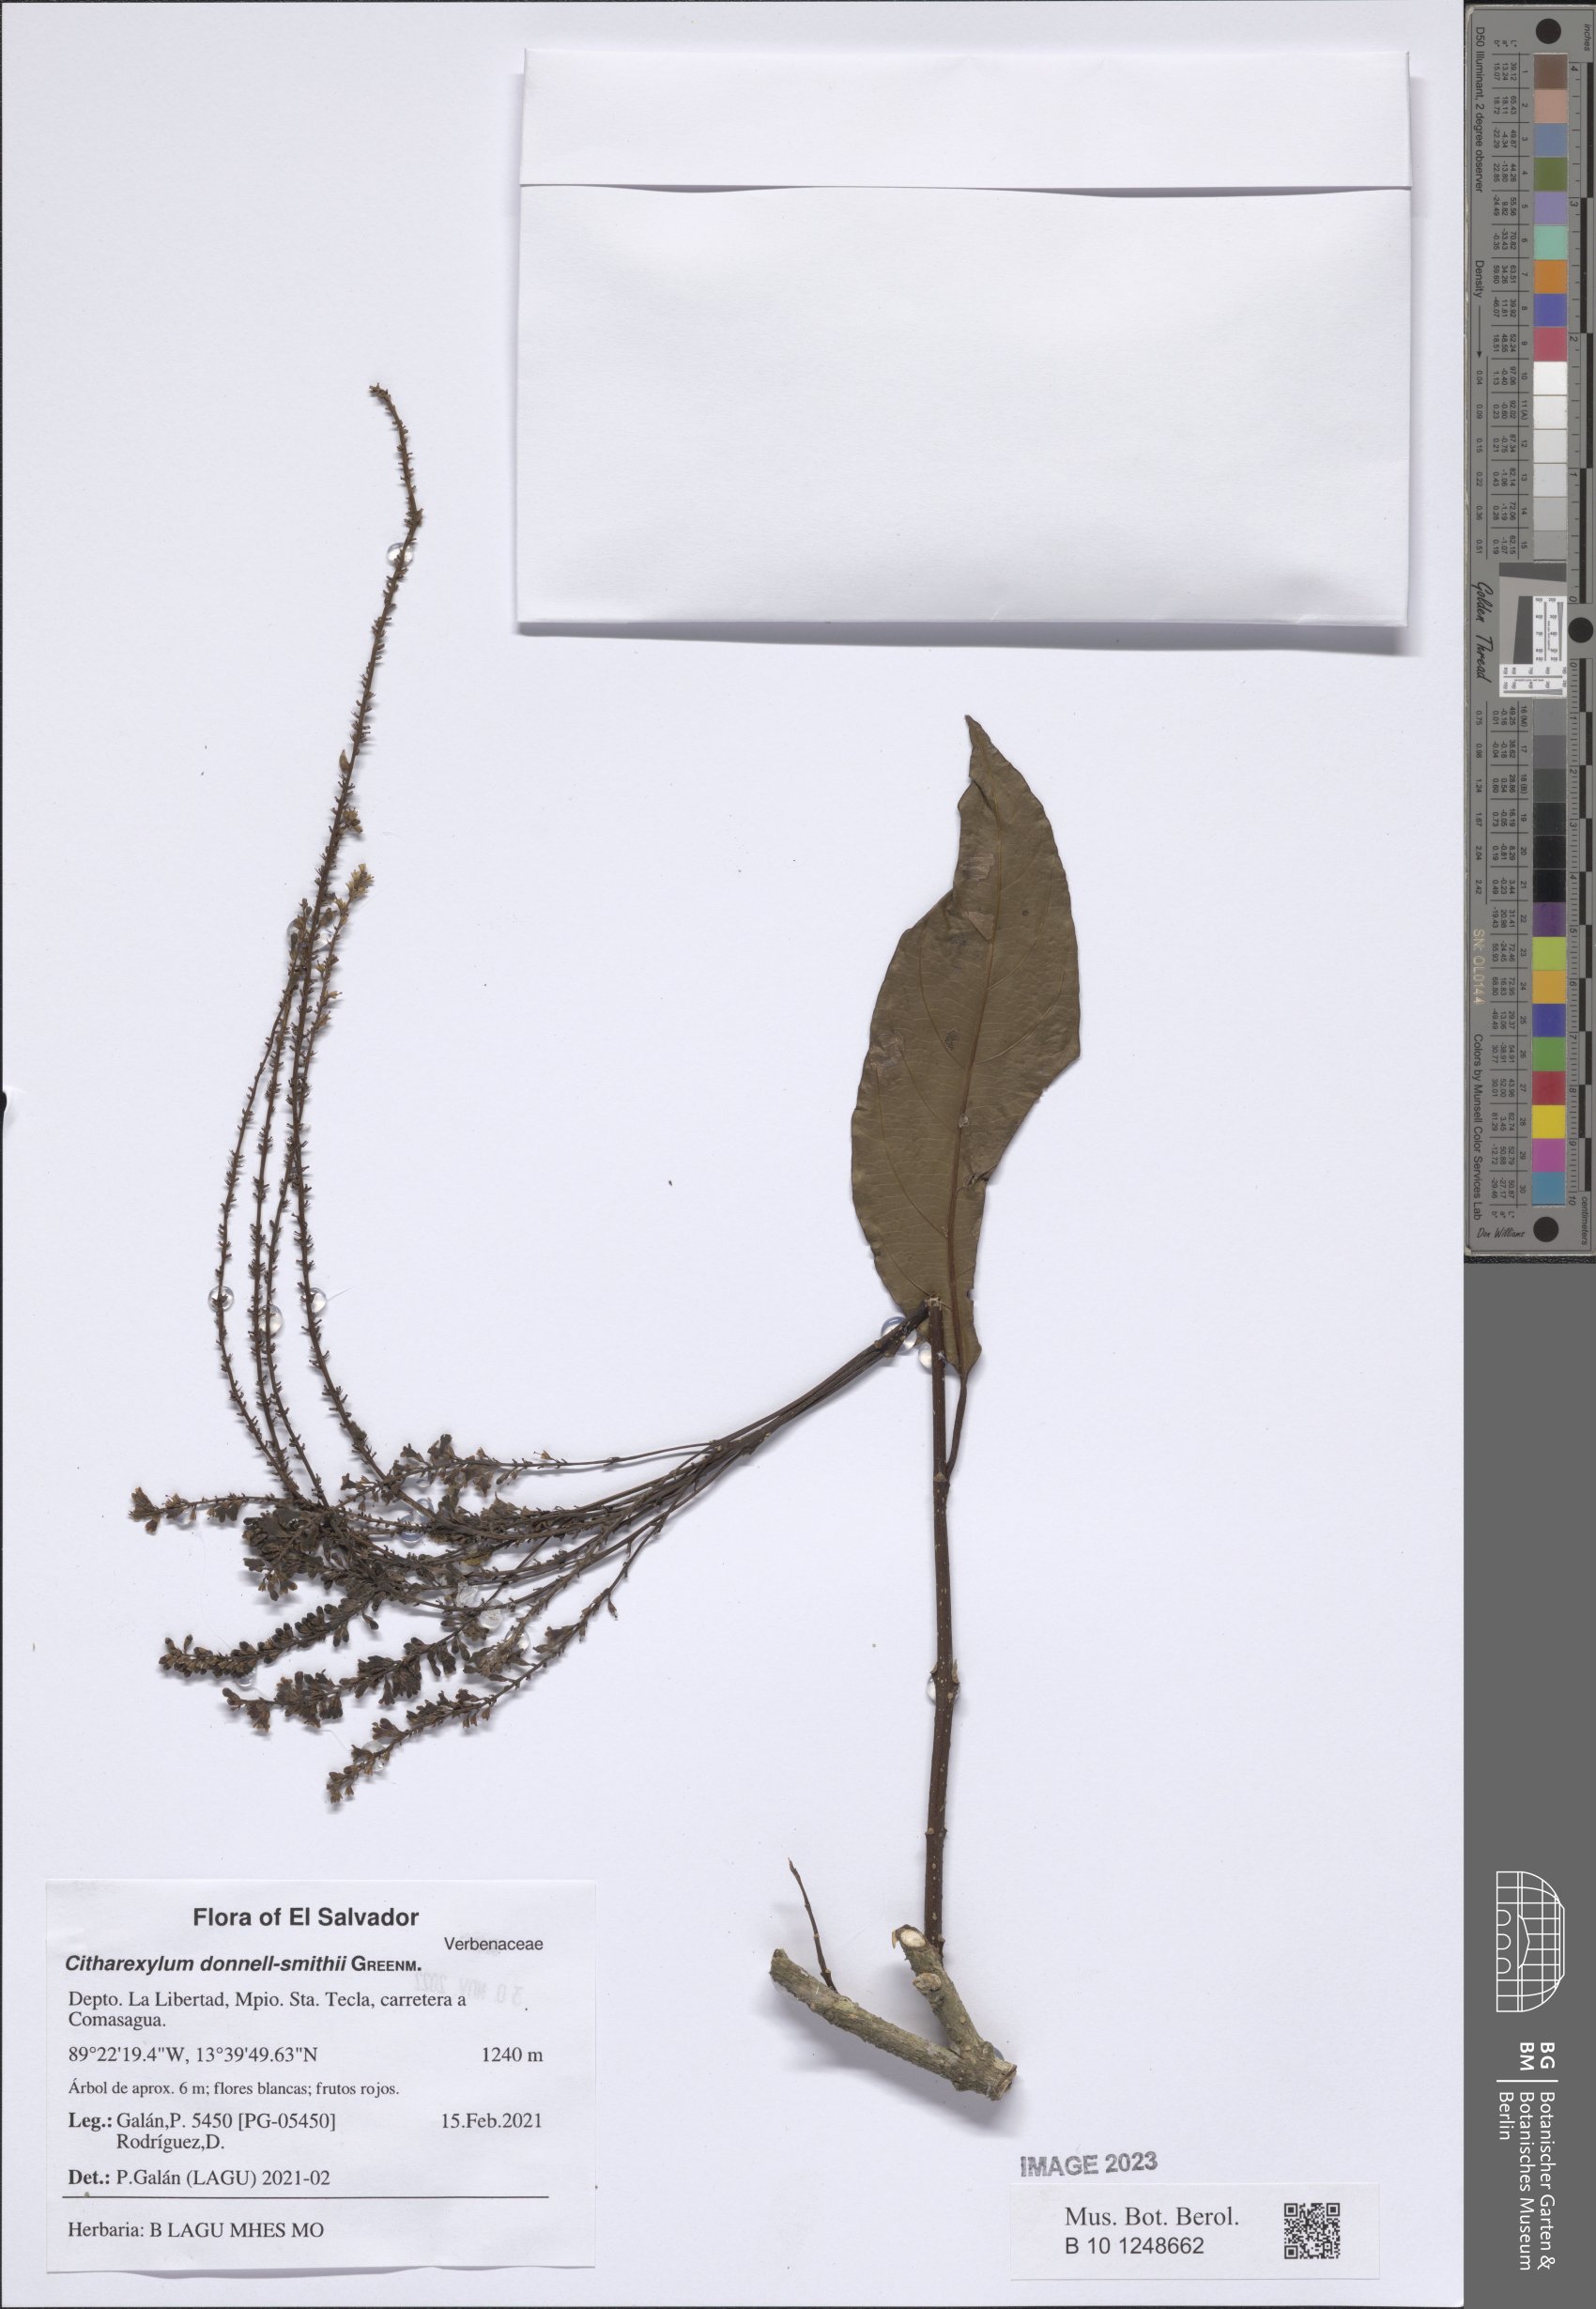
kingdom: Plantae
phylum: Tracheophyta
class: Magnoliopsida
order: Lamiales
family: Verbenaceae
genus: Citharexylum
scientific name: Citharexylum donnell-smithii
